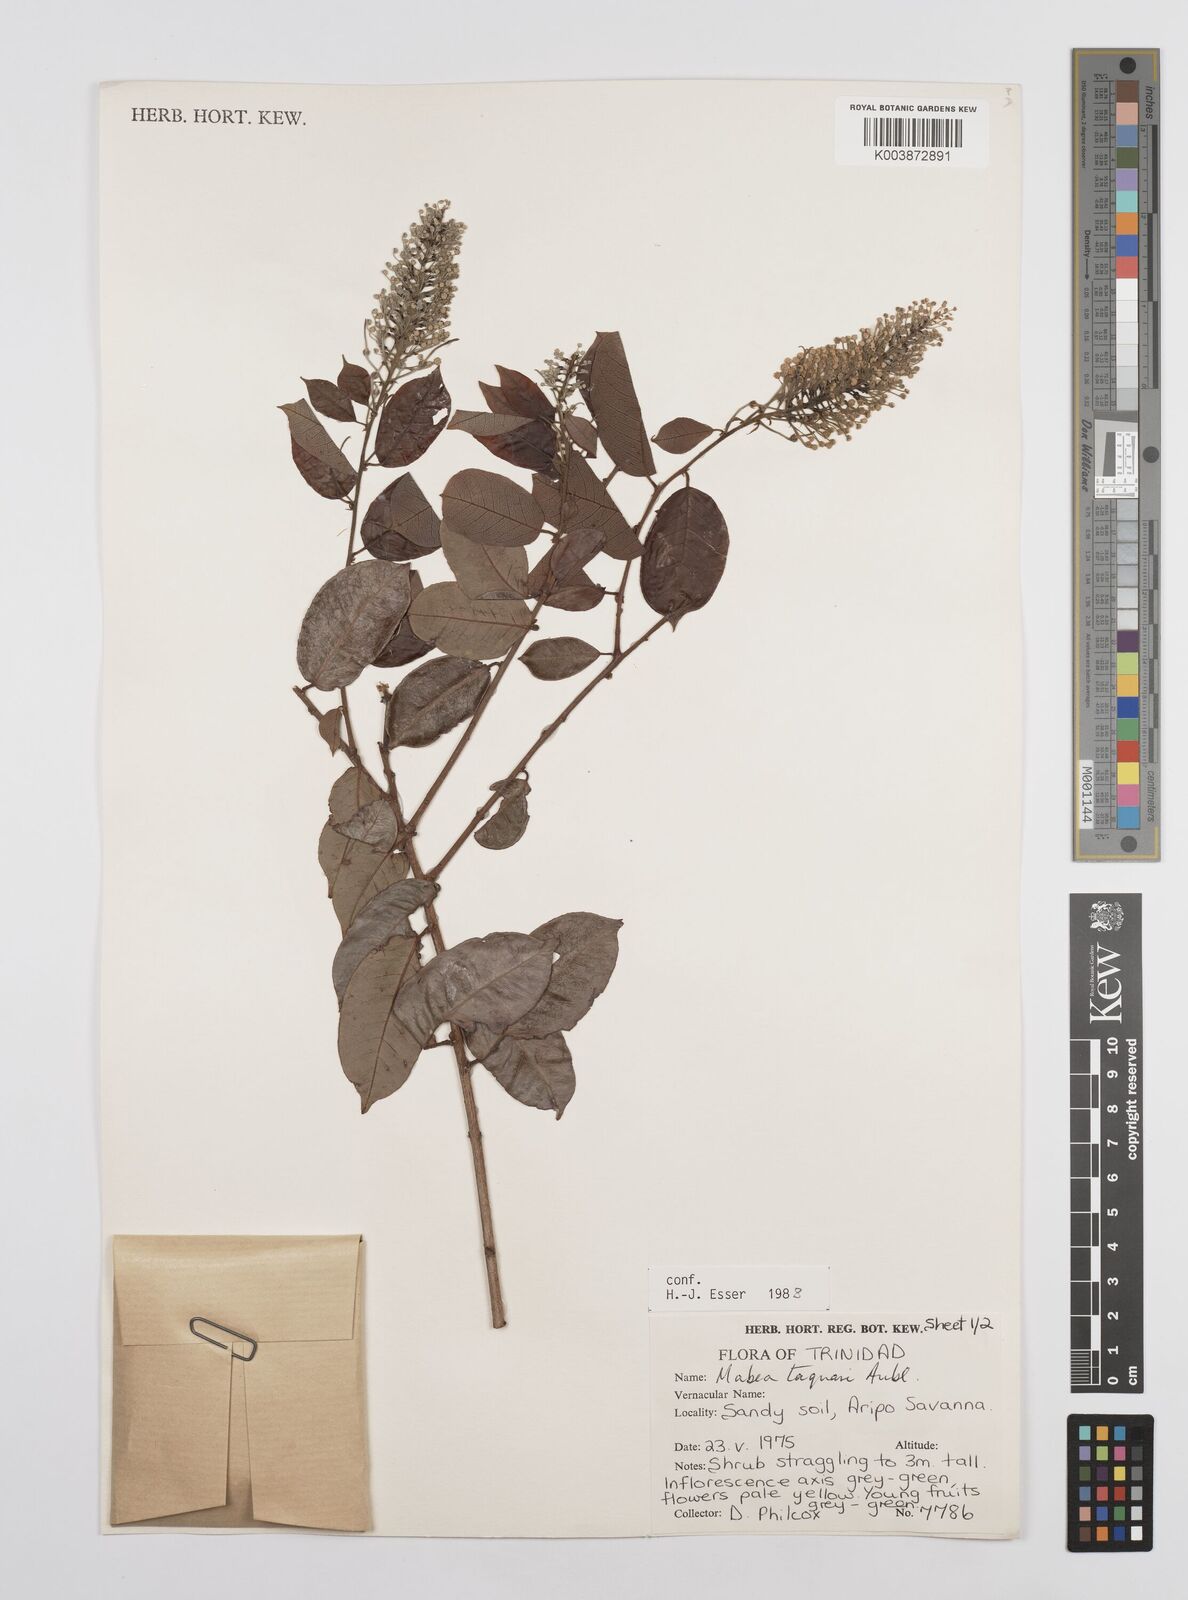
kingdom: Plantae
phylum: Tracheophyta
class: Magnoliopsida
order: Malpighiales
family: Euphorbiaceae
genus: Mabea
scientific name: Mabea taquari
